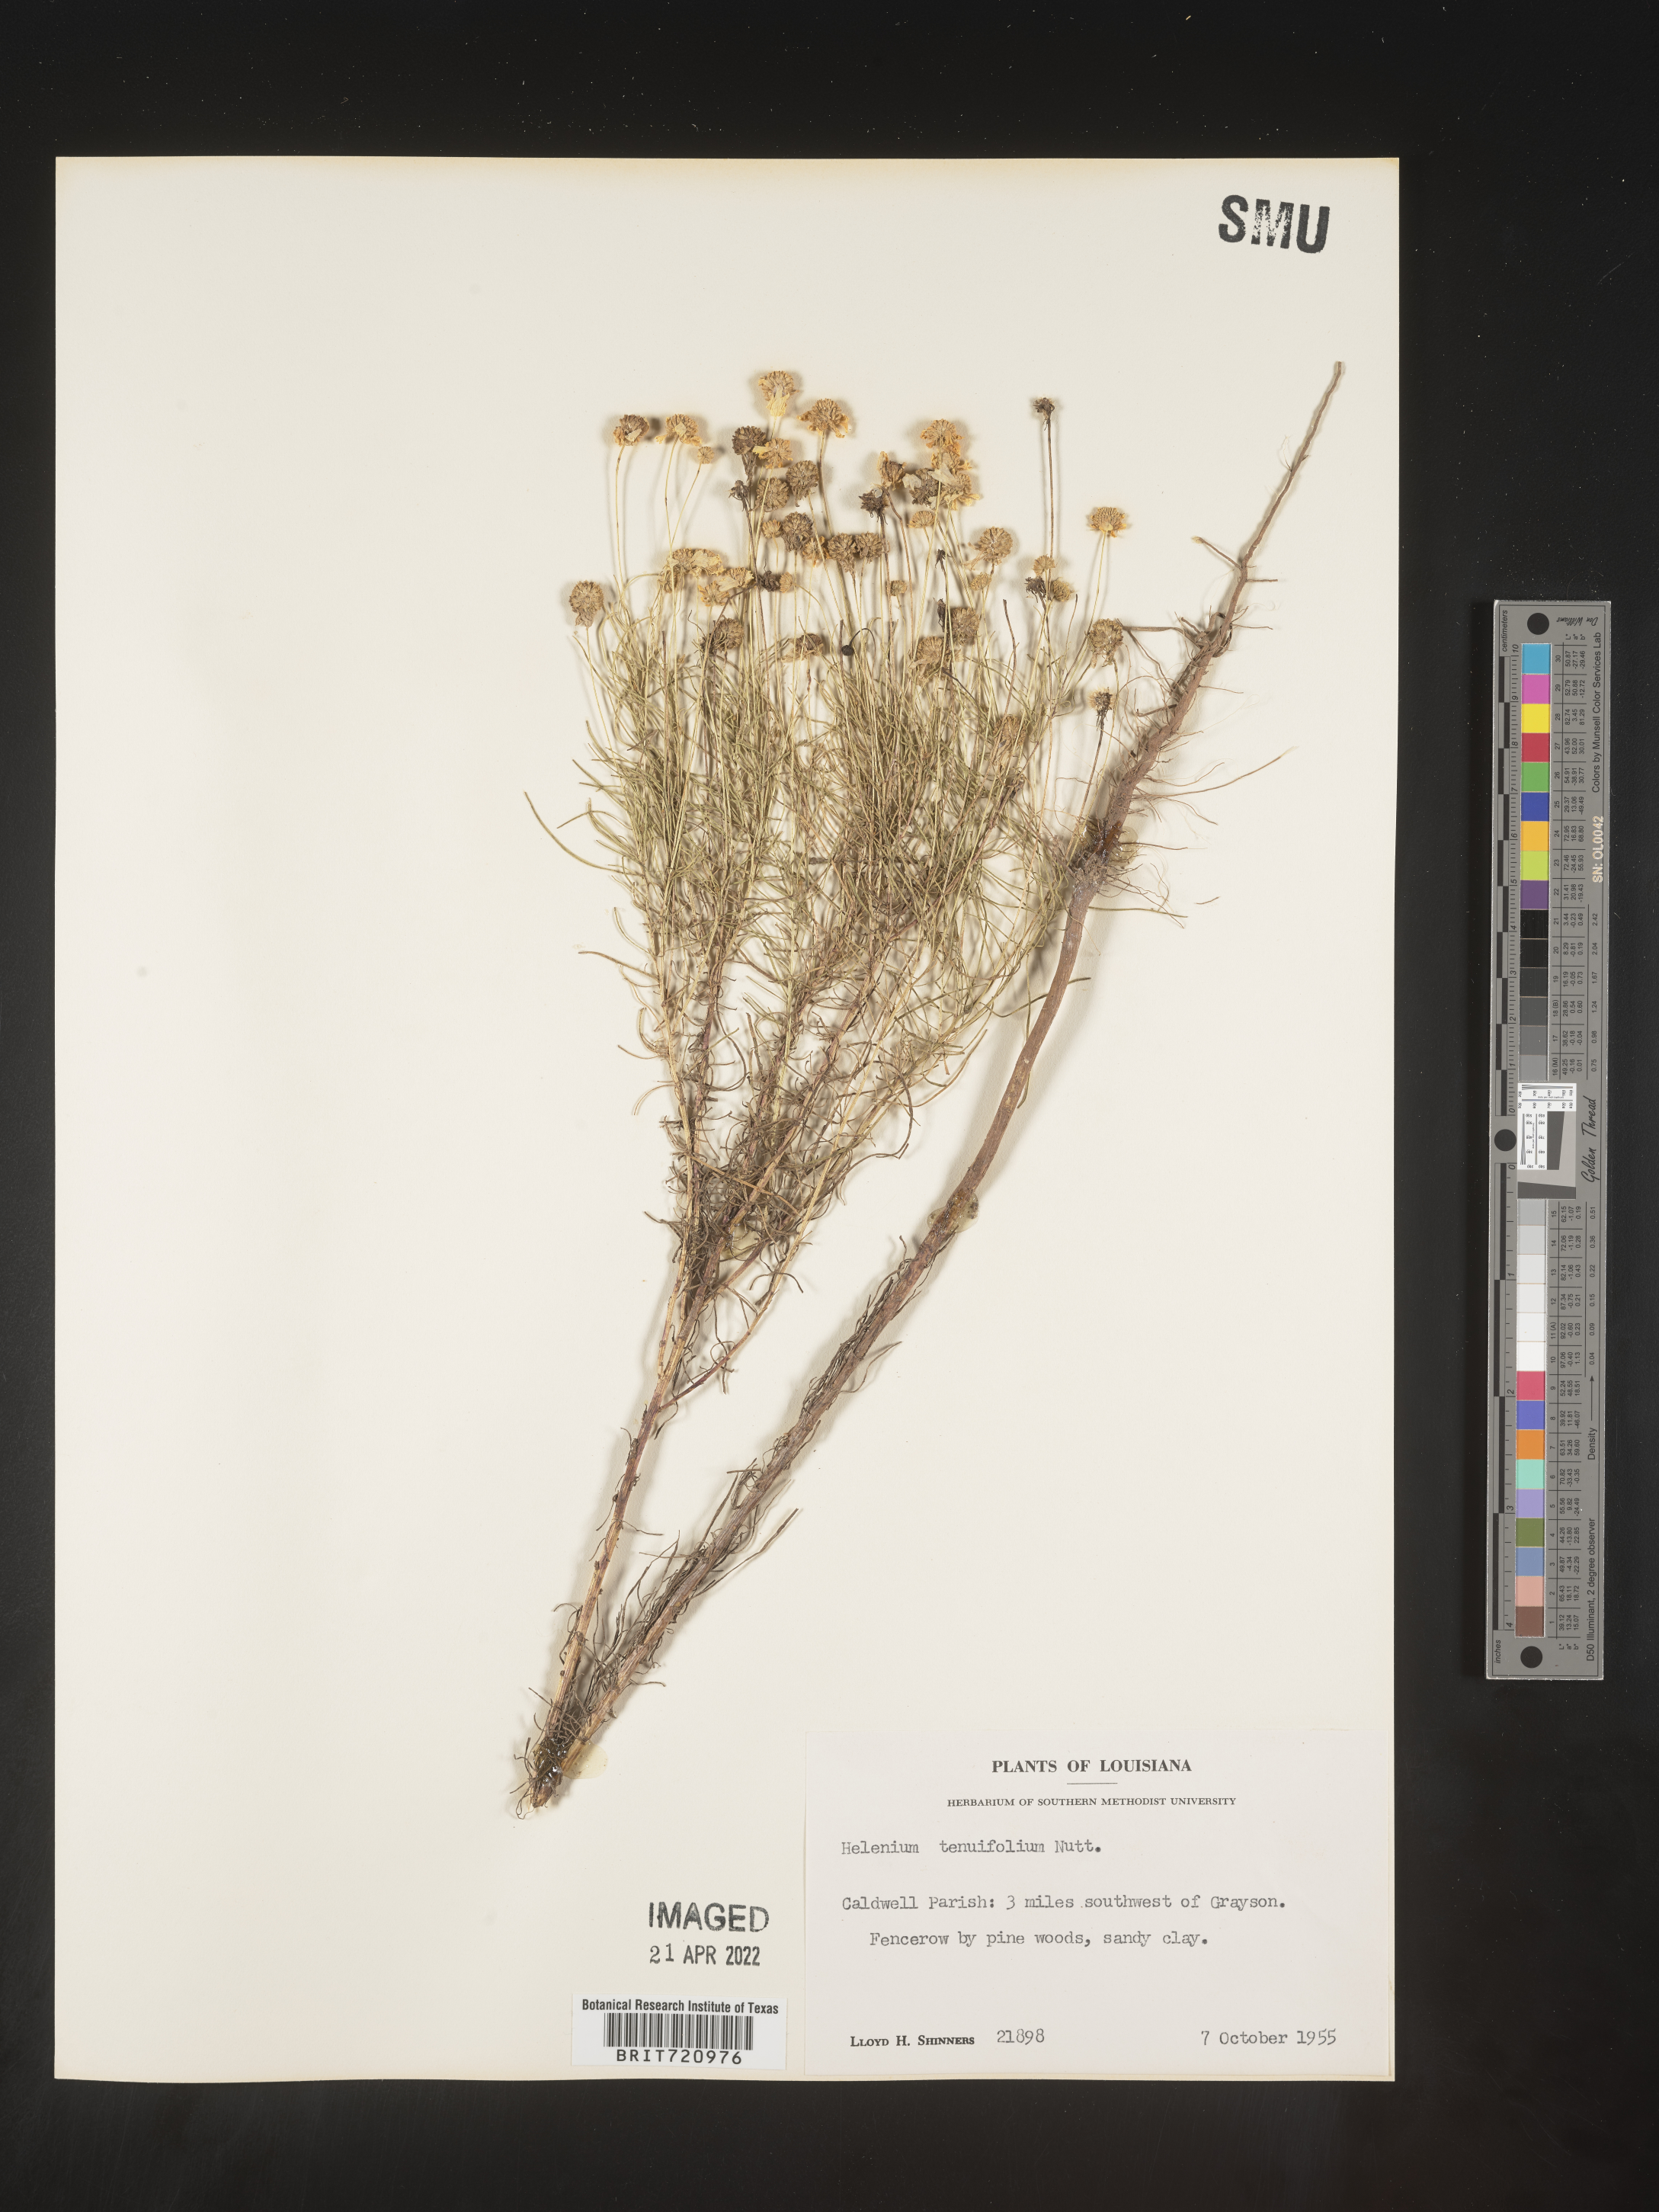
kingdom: Plantae
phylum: Tracheophyta
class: Magnoliopsida
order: Asterales
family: Asteraceae
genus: Helenium
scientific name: Helenium amarum
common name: Bitter sneezeweed
